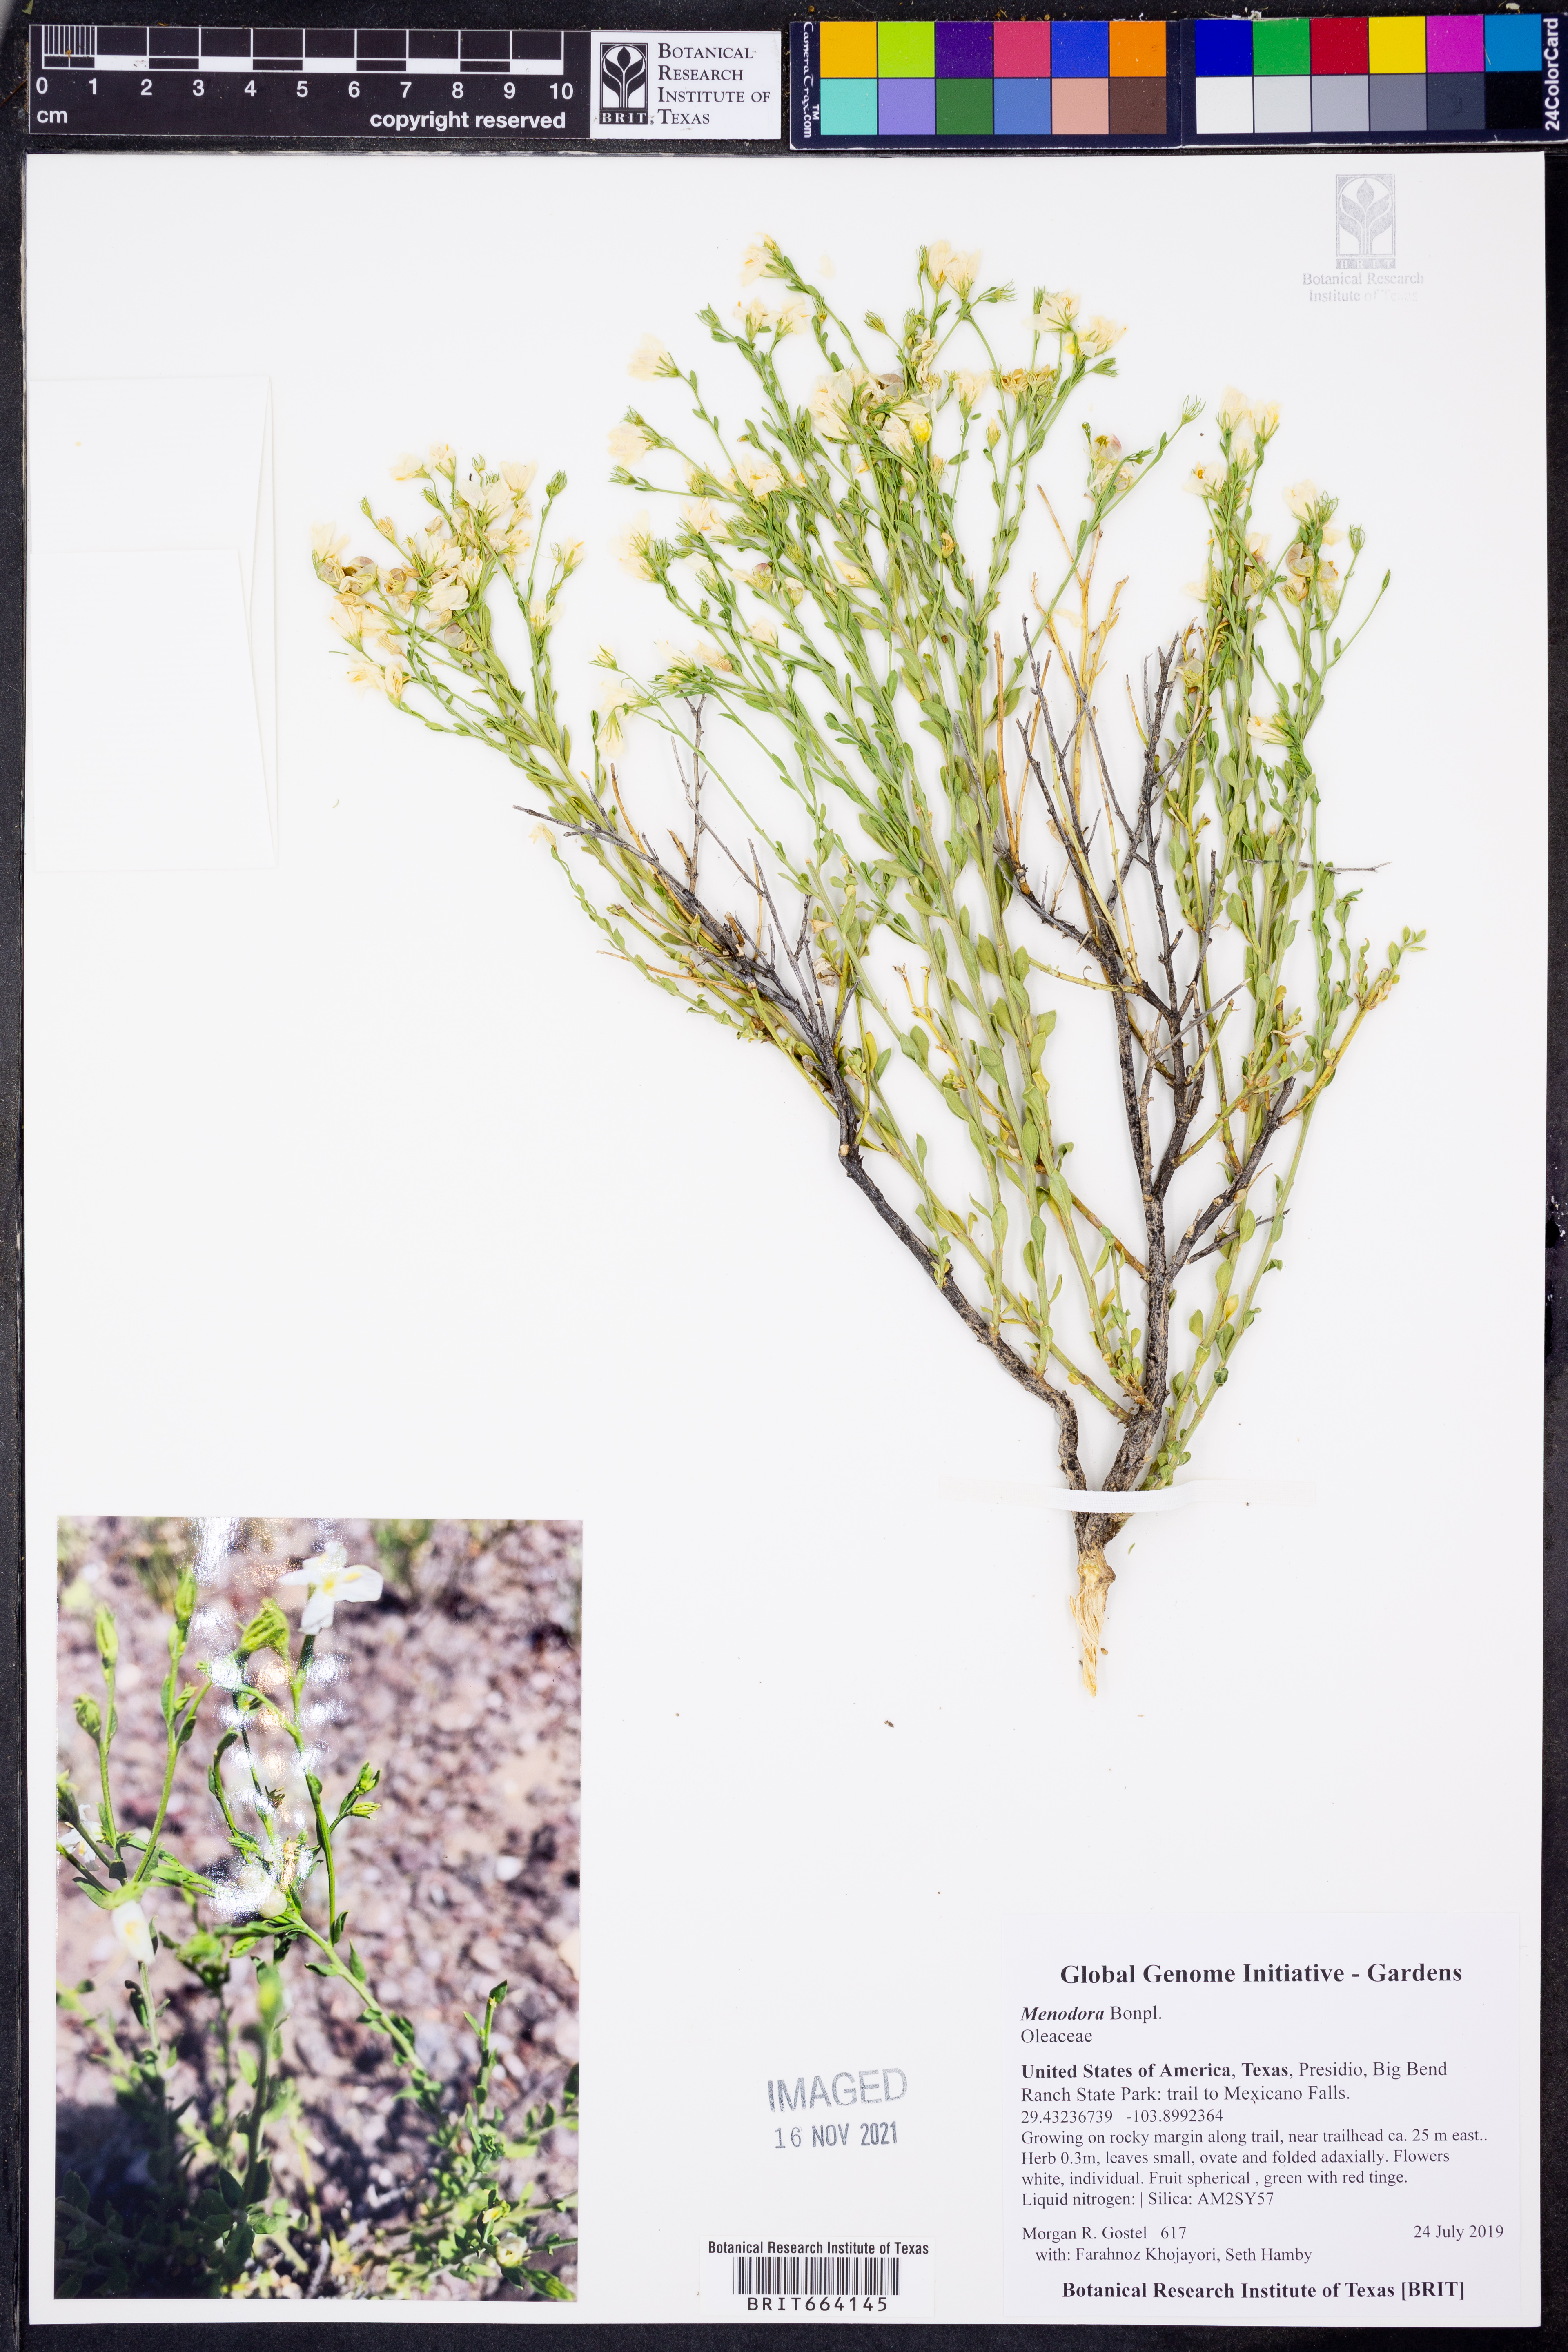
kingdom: Plantae
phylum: Tracheophyta
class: Magnoliopsida
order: Lamiales
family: Oleaceae
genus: Menodora
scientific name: Menodora
